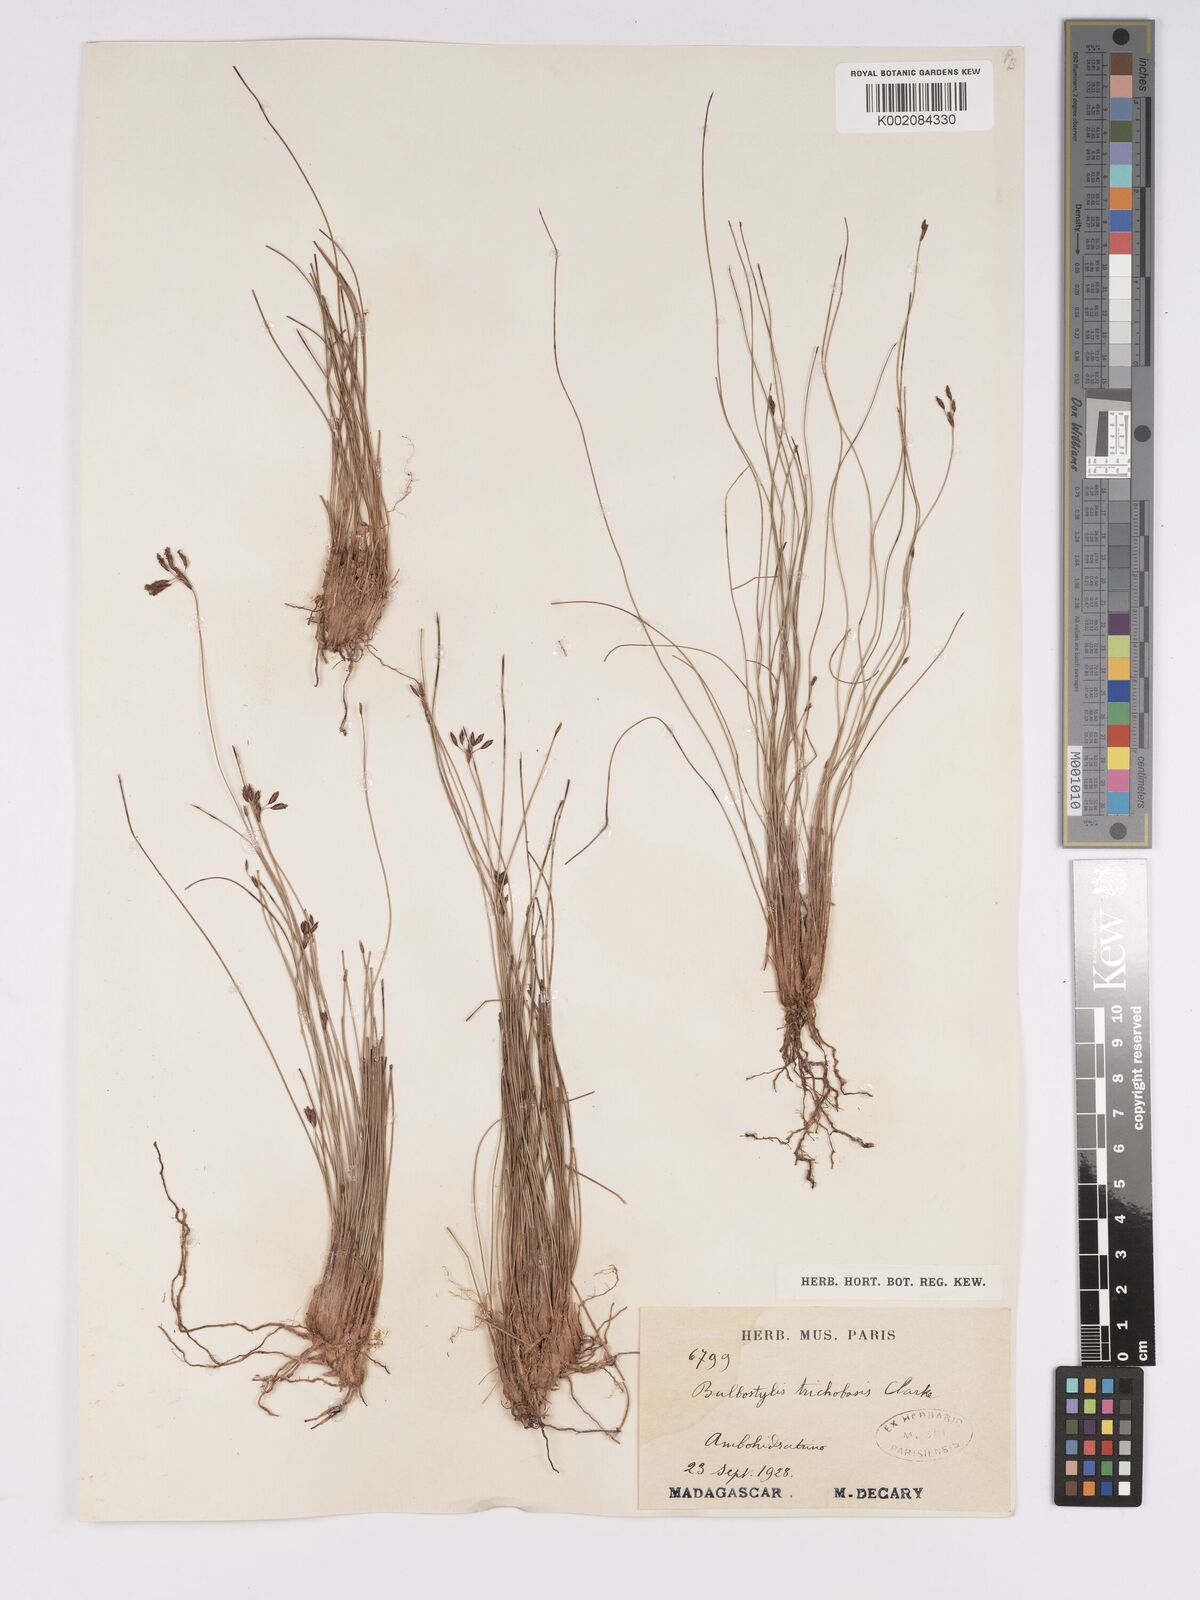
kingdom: Plantae
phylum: Tracheophyta
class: Liliopsida
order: Poales
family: Cyperaceae
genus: Bulbostylis
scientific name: Bulbostylis trichobasis
